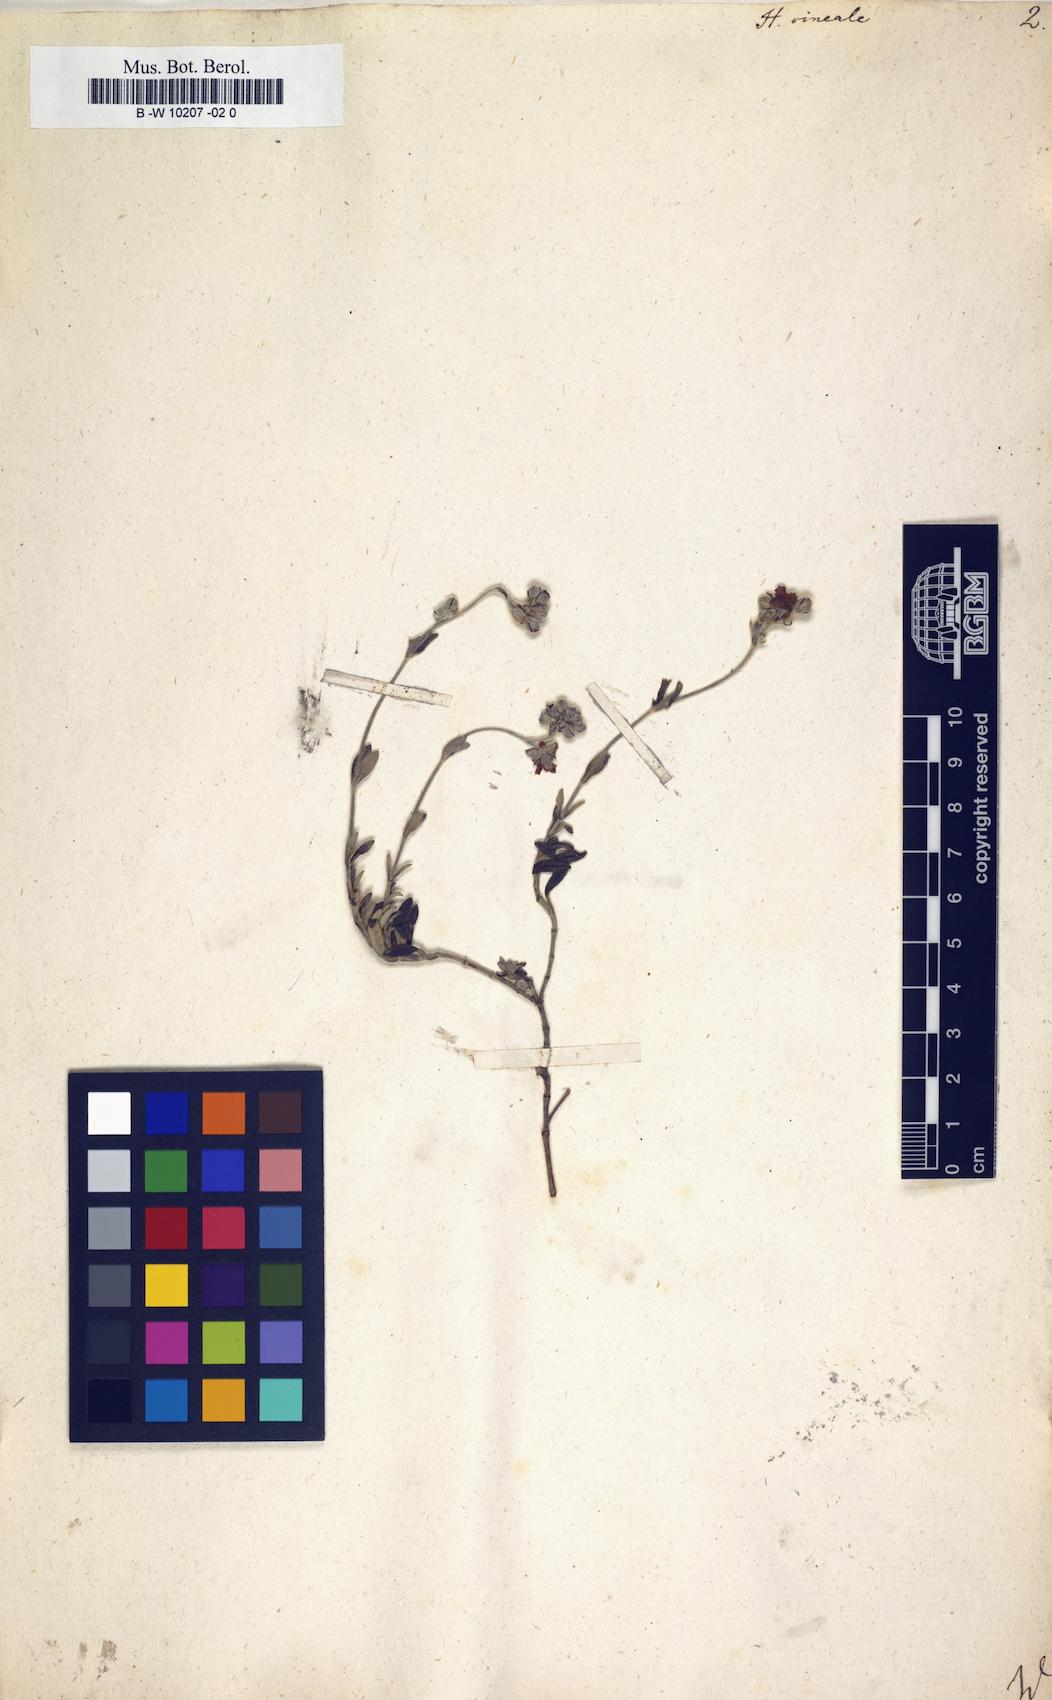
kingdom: Plantae
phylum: Tracheophyta
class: Magnoliopsida
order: Malvales
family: Cistaceae
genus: Helianthemum
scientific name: Helianthemum canum
